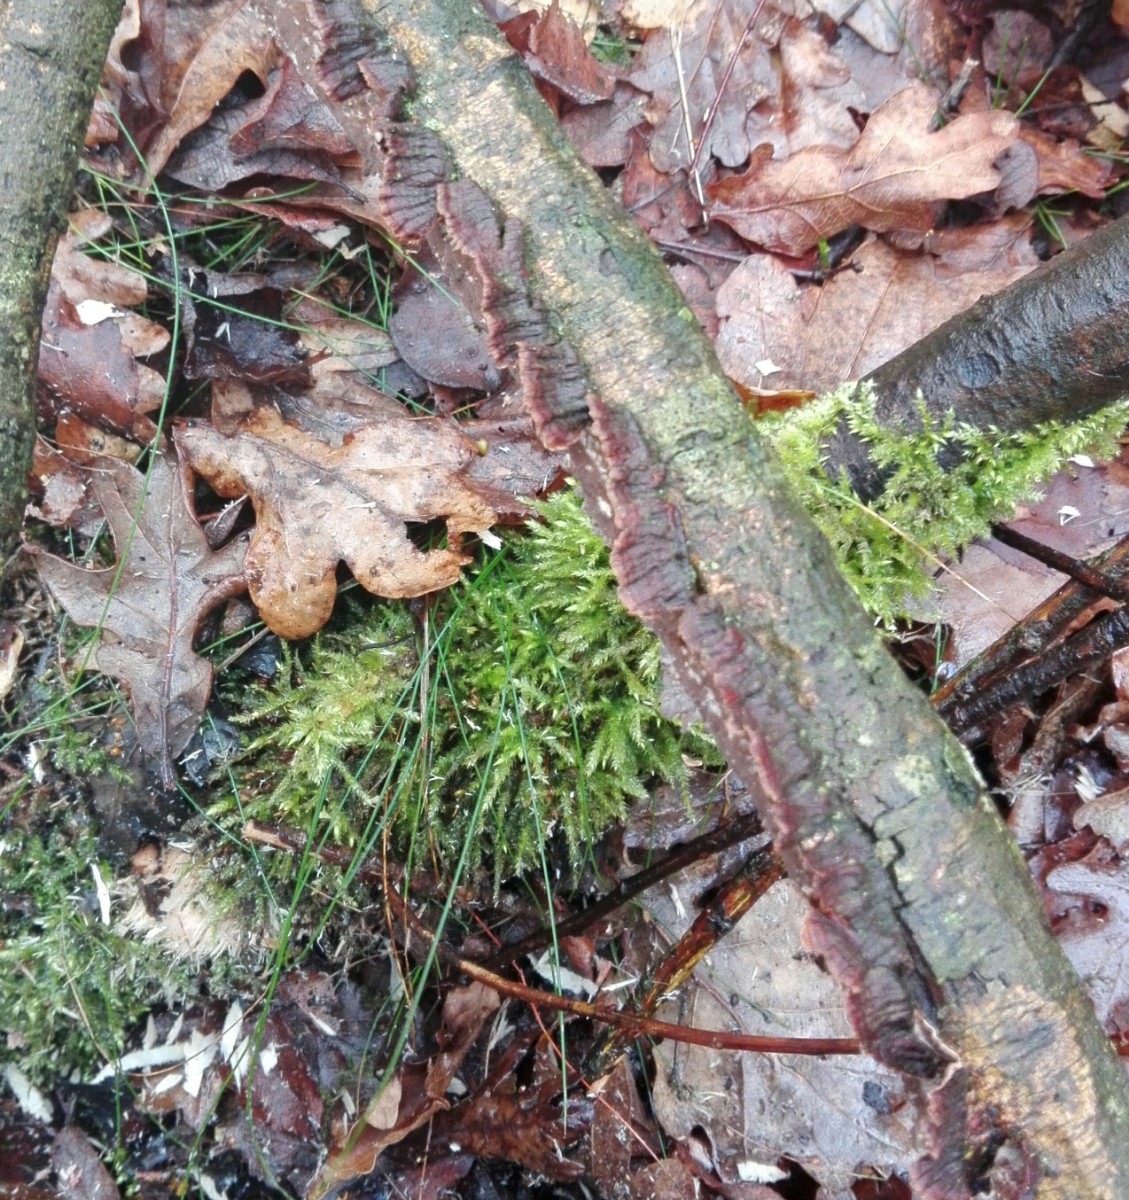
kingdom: Fungi
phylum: Basidiomycota
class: Agaricomycetes
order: Hymenochaetales
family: Hymenochaetaceae
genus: Hydnoporia
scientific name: Hydnoporia tabacina
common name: tobaksbrun ruslædersvamp
